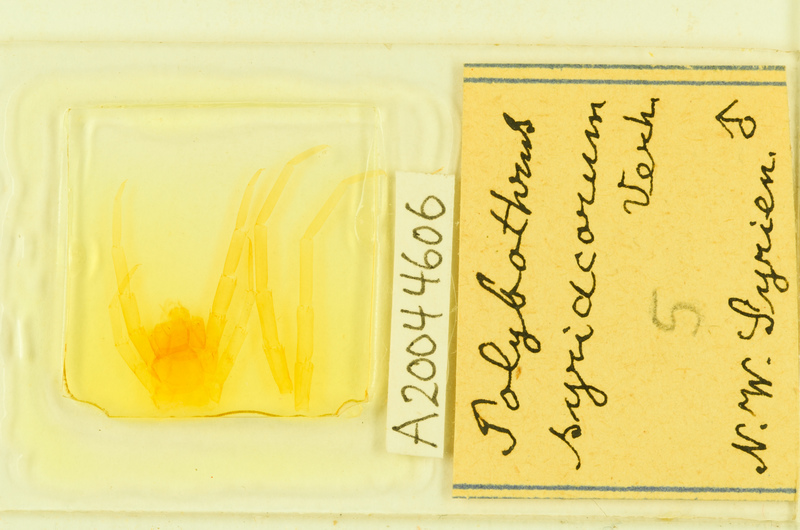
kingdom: Animalia
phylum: Arthropoda
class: Chilopoda
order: Lithobiomorpha
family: Lithobiidae
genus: Polybothrus
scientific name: Polybothrus
